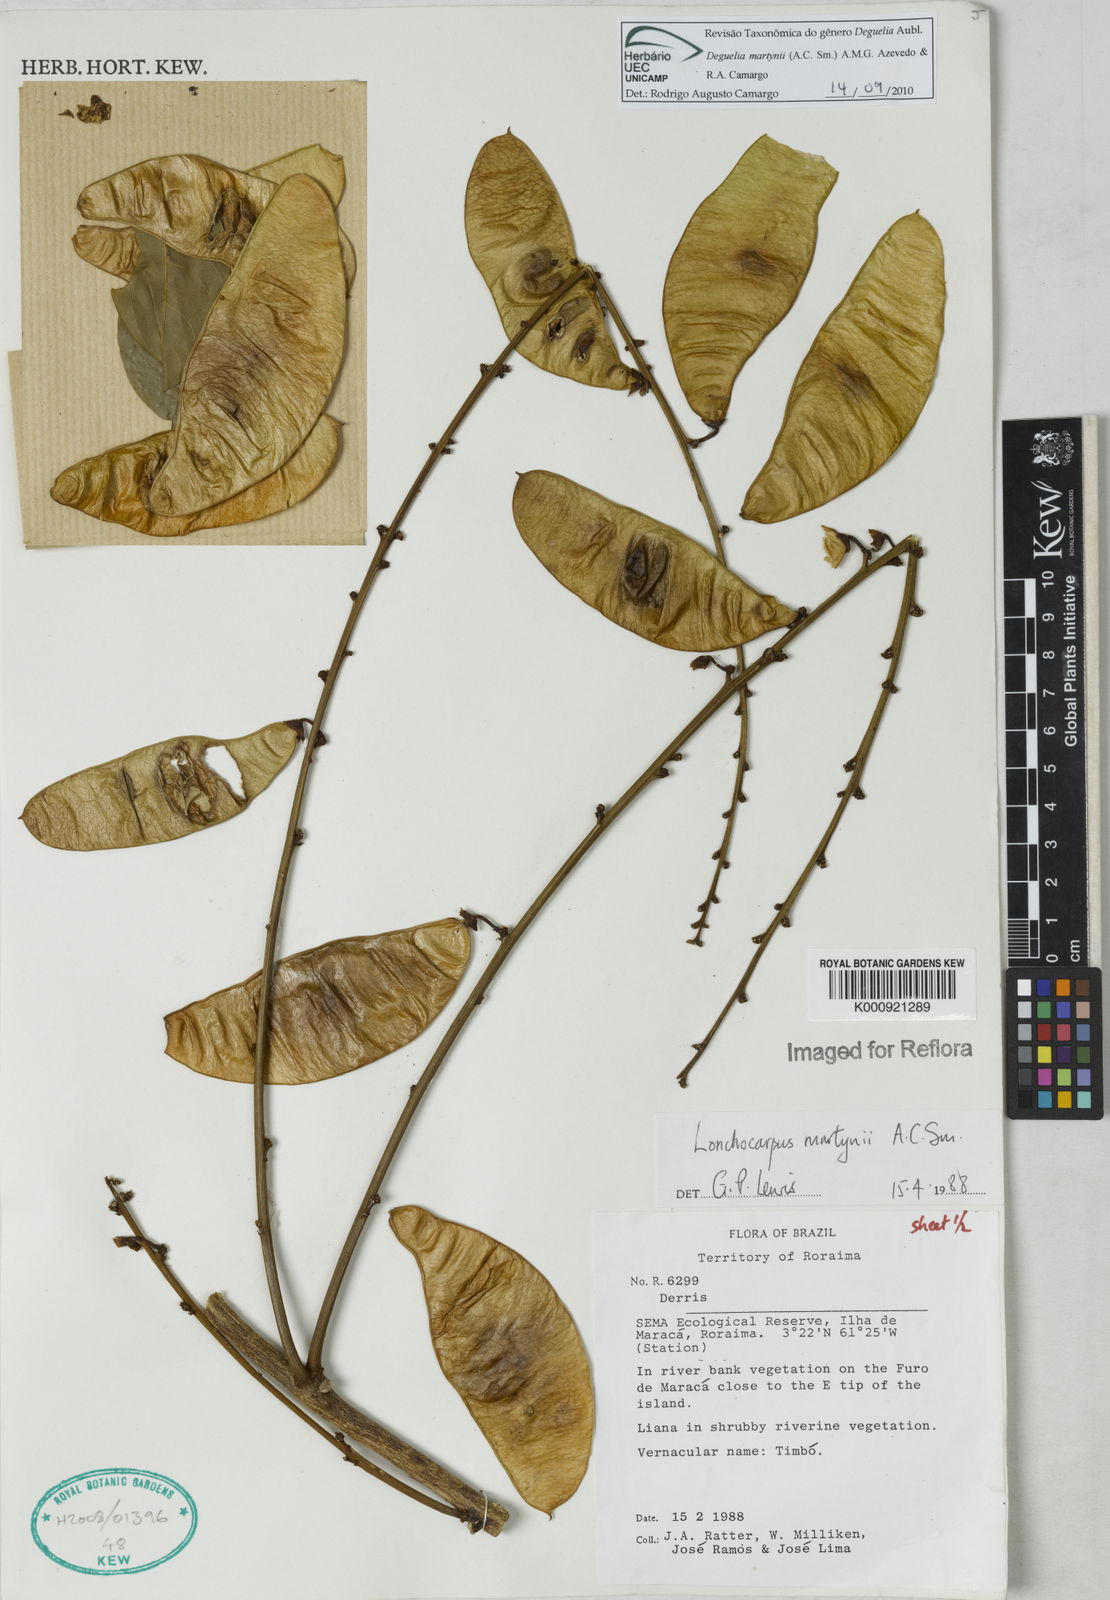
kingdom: Plantae
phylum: Tracheophyta
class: Magnoliopsida
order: Fabales
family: Fabaceae
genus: Deguelia
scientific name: Deguelia
